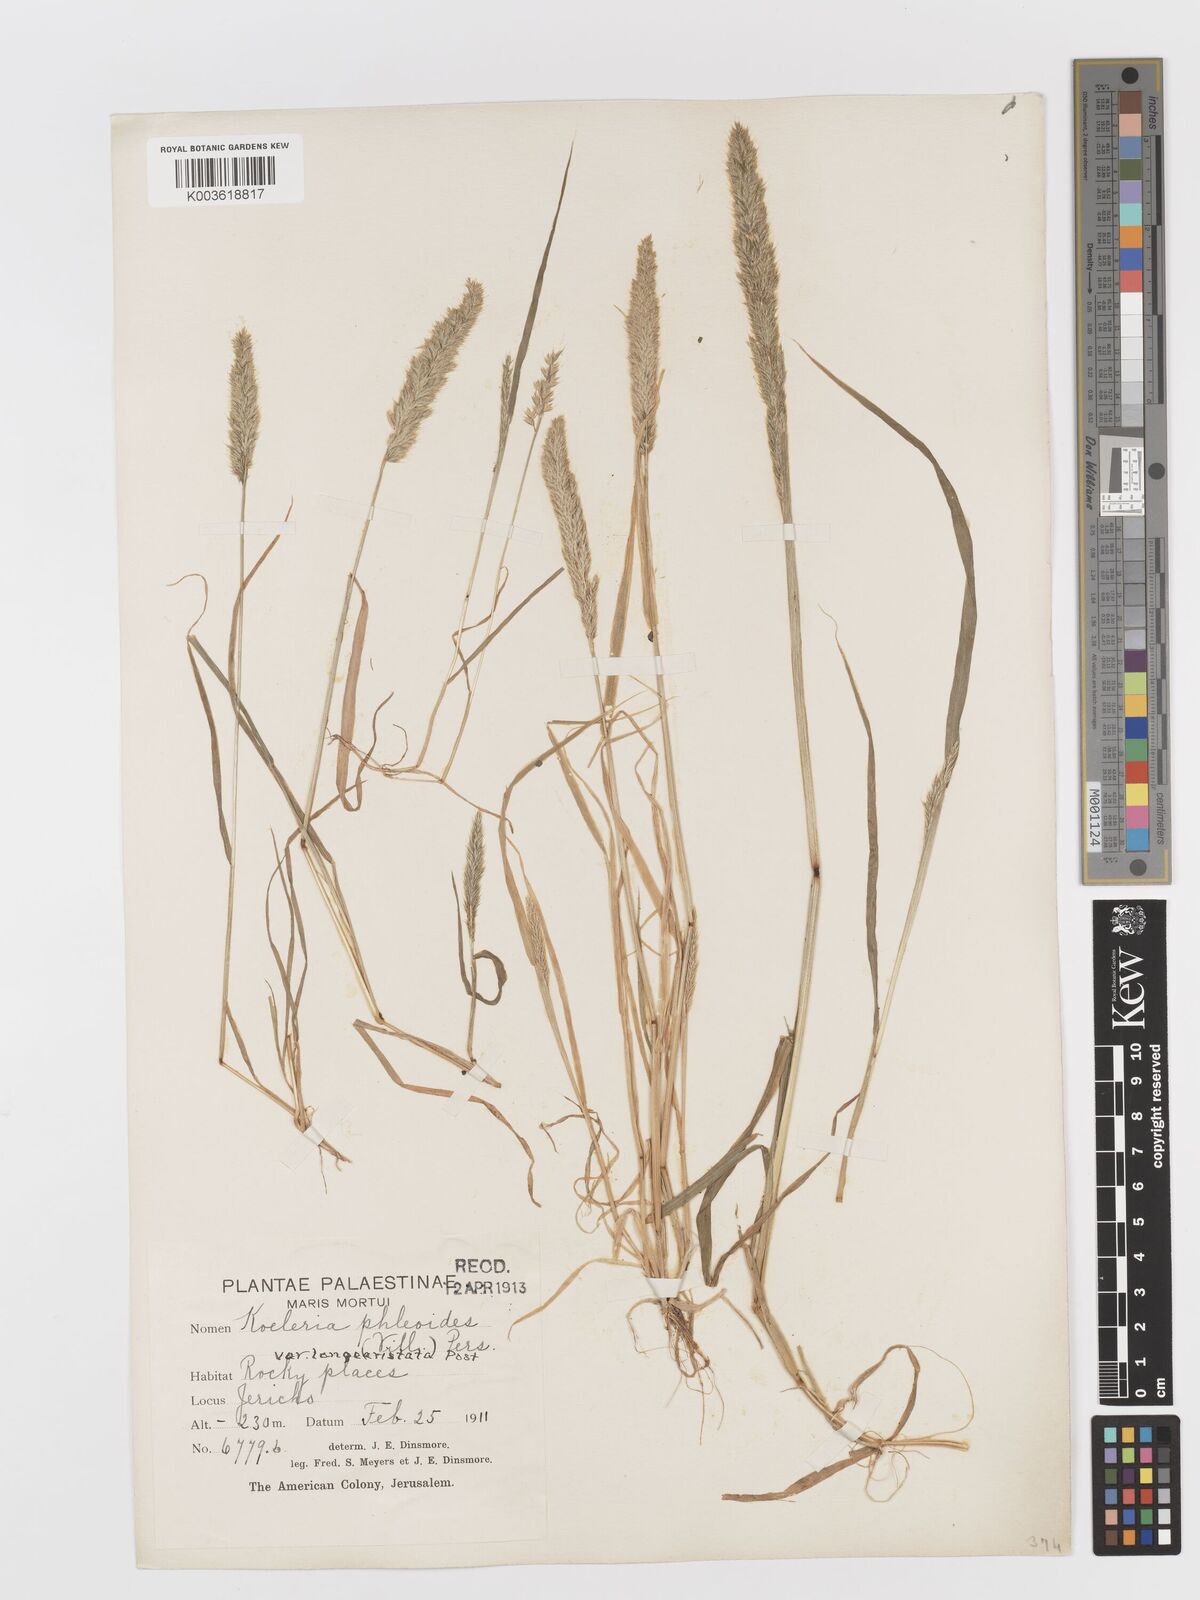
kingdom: Plantae
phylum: Tracheophyta
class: Liliopsida
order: Poales
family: Poaceae
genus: Rostraria
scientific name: Rostraria cristata
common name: Mediterranean hair-grass
